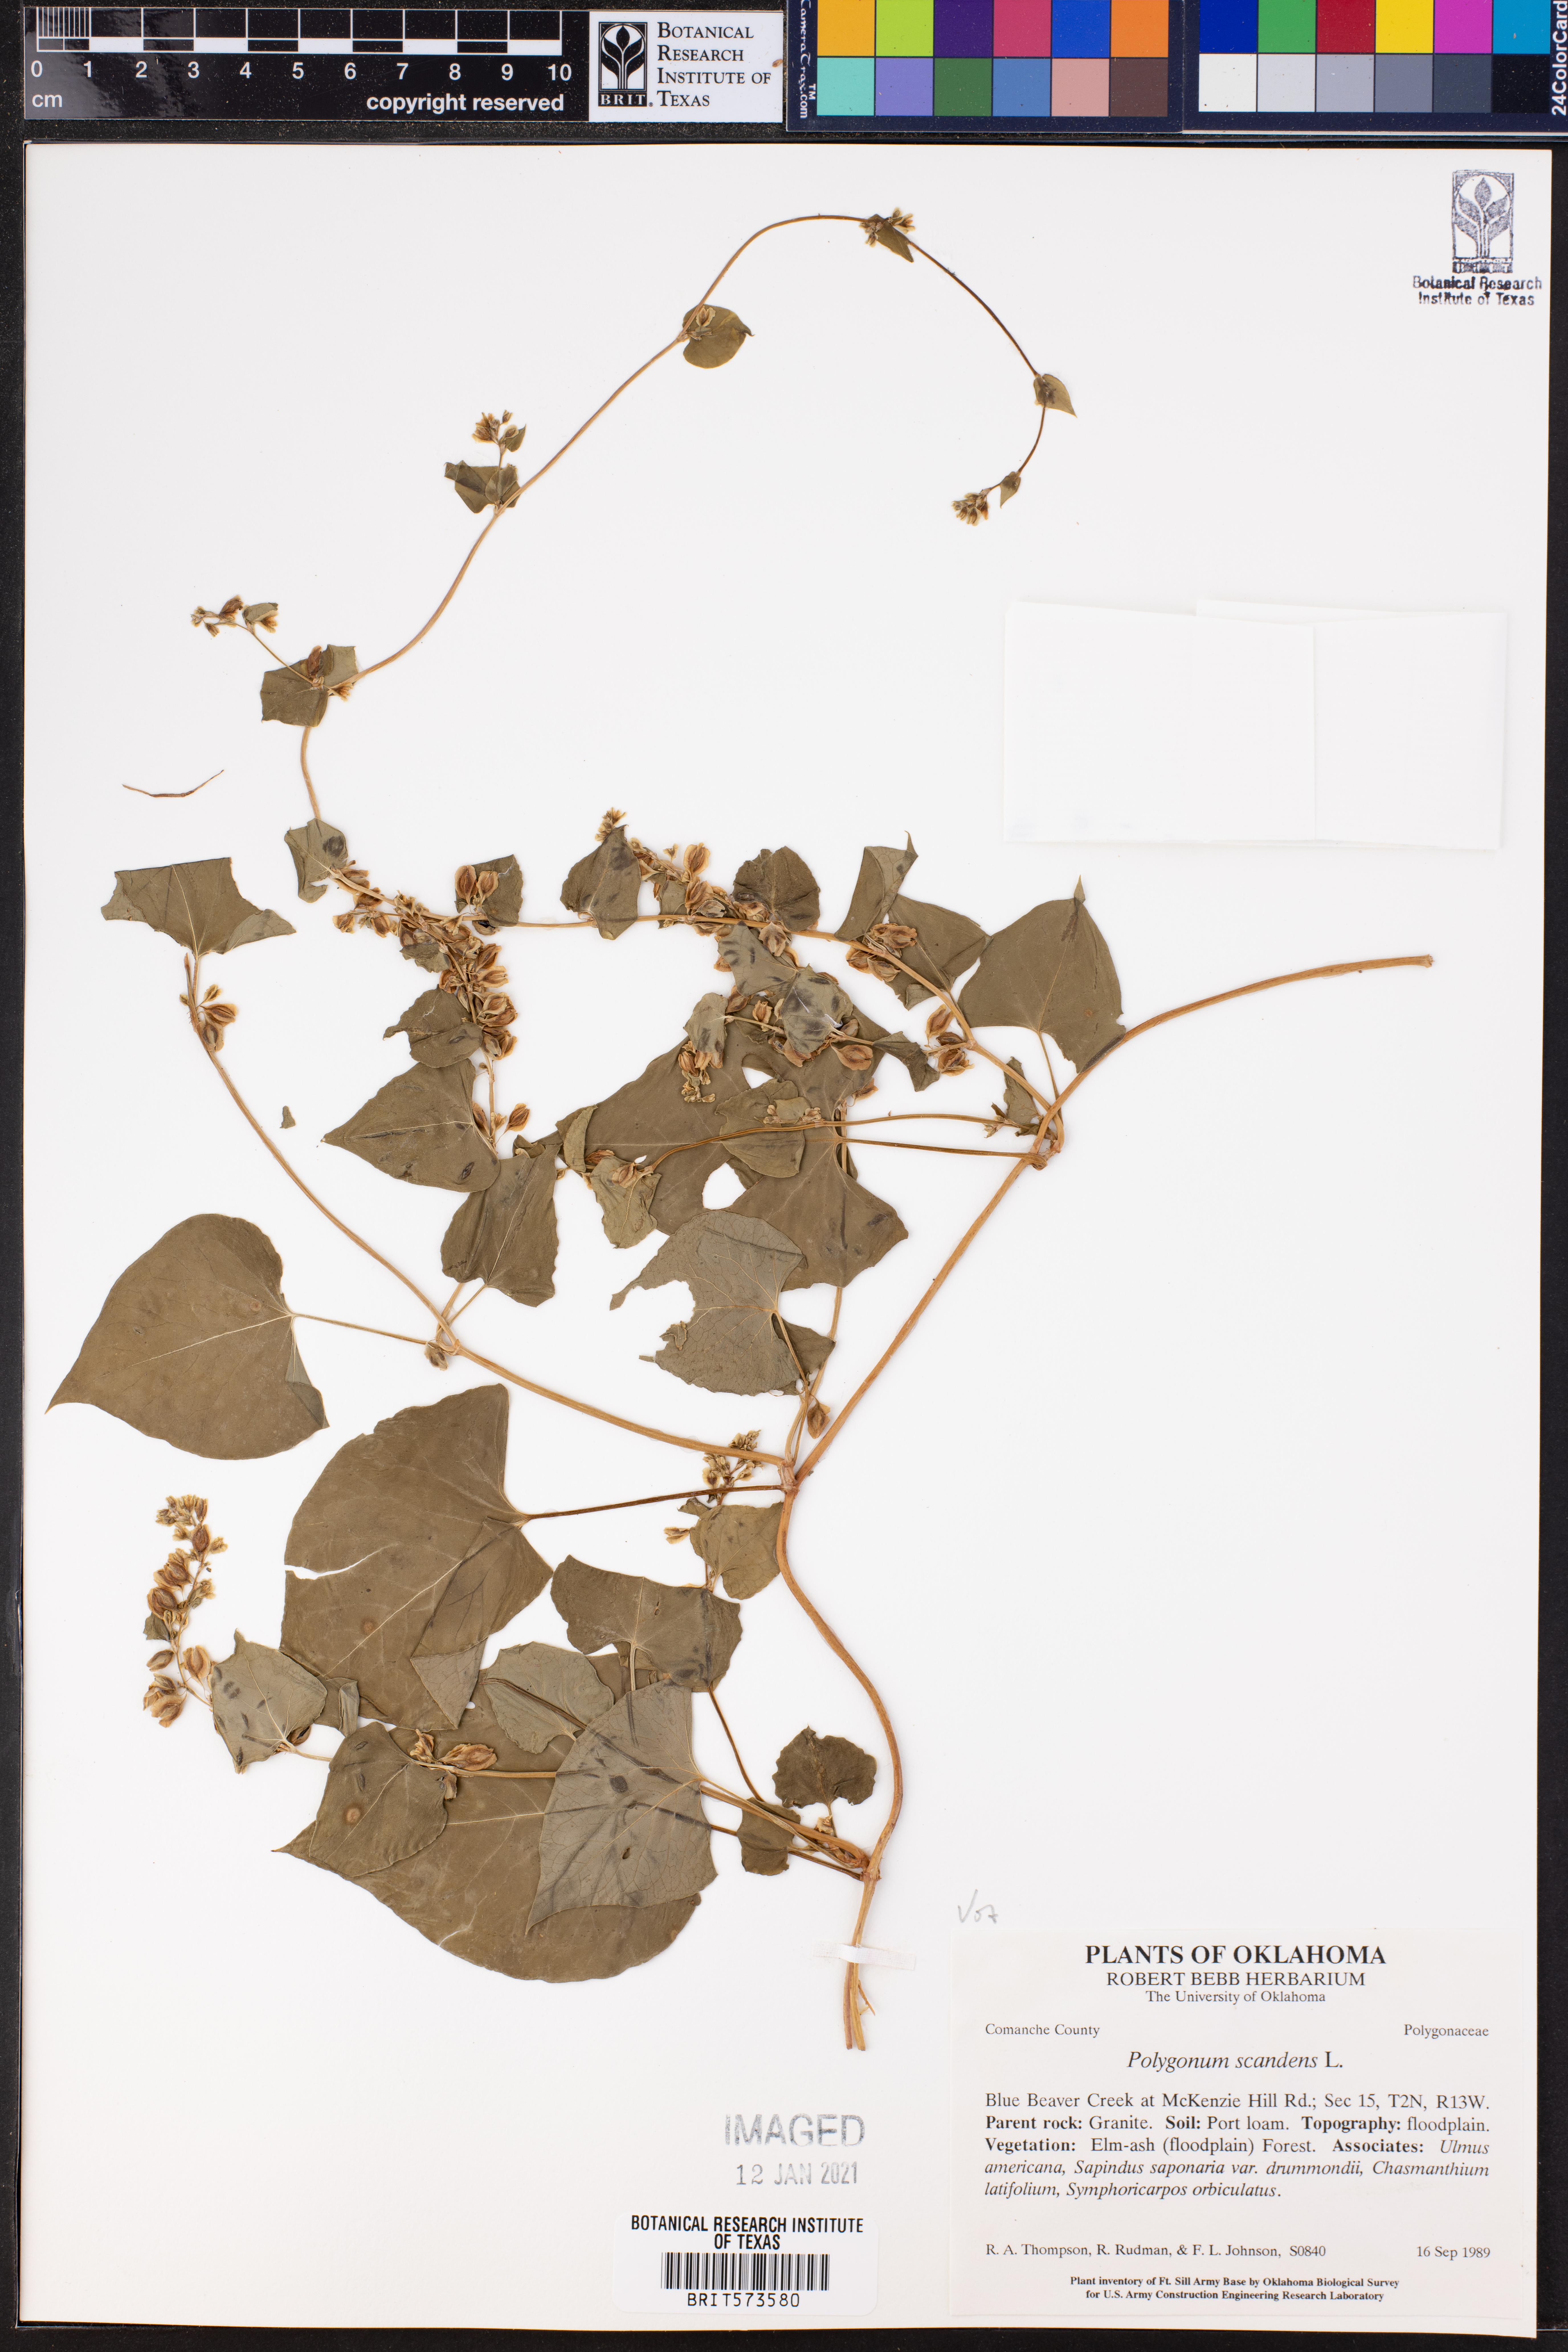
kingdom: Plantae
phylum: Tracheophyta
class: Magnoliopsida
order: Caryophyllales
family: Polygonaceae
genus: Fallopia
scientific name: Fallopia scandens
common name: Climbing false buckwheat
